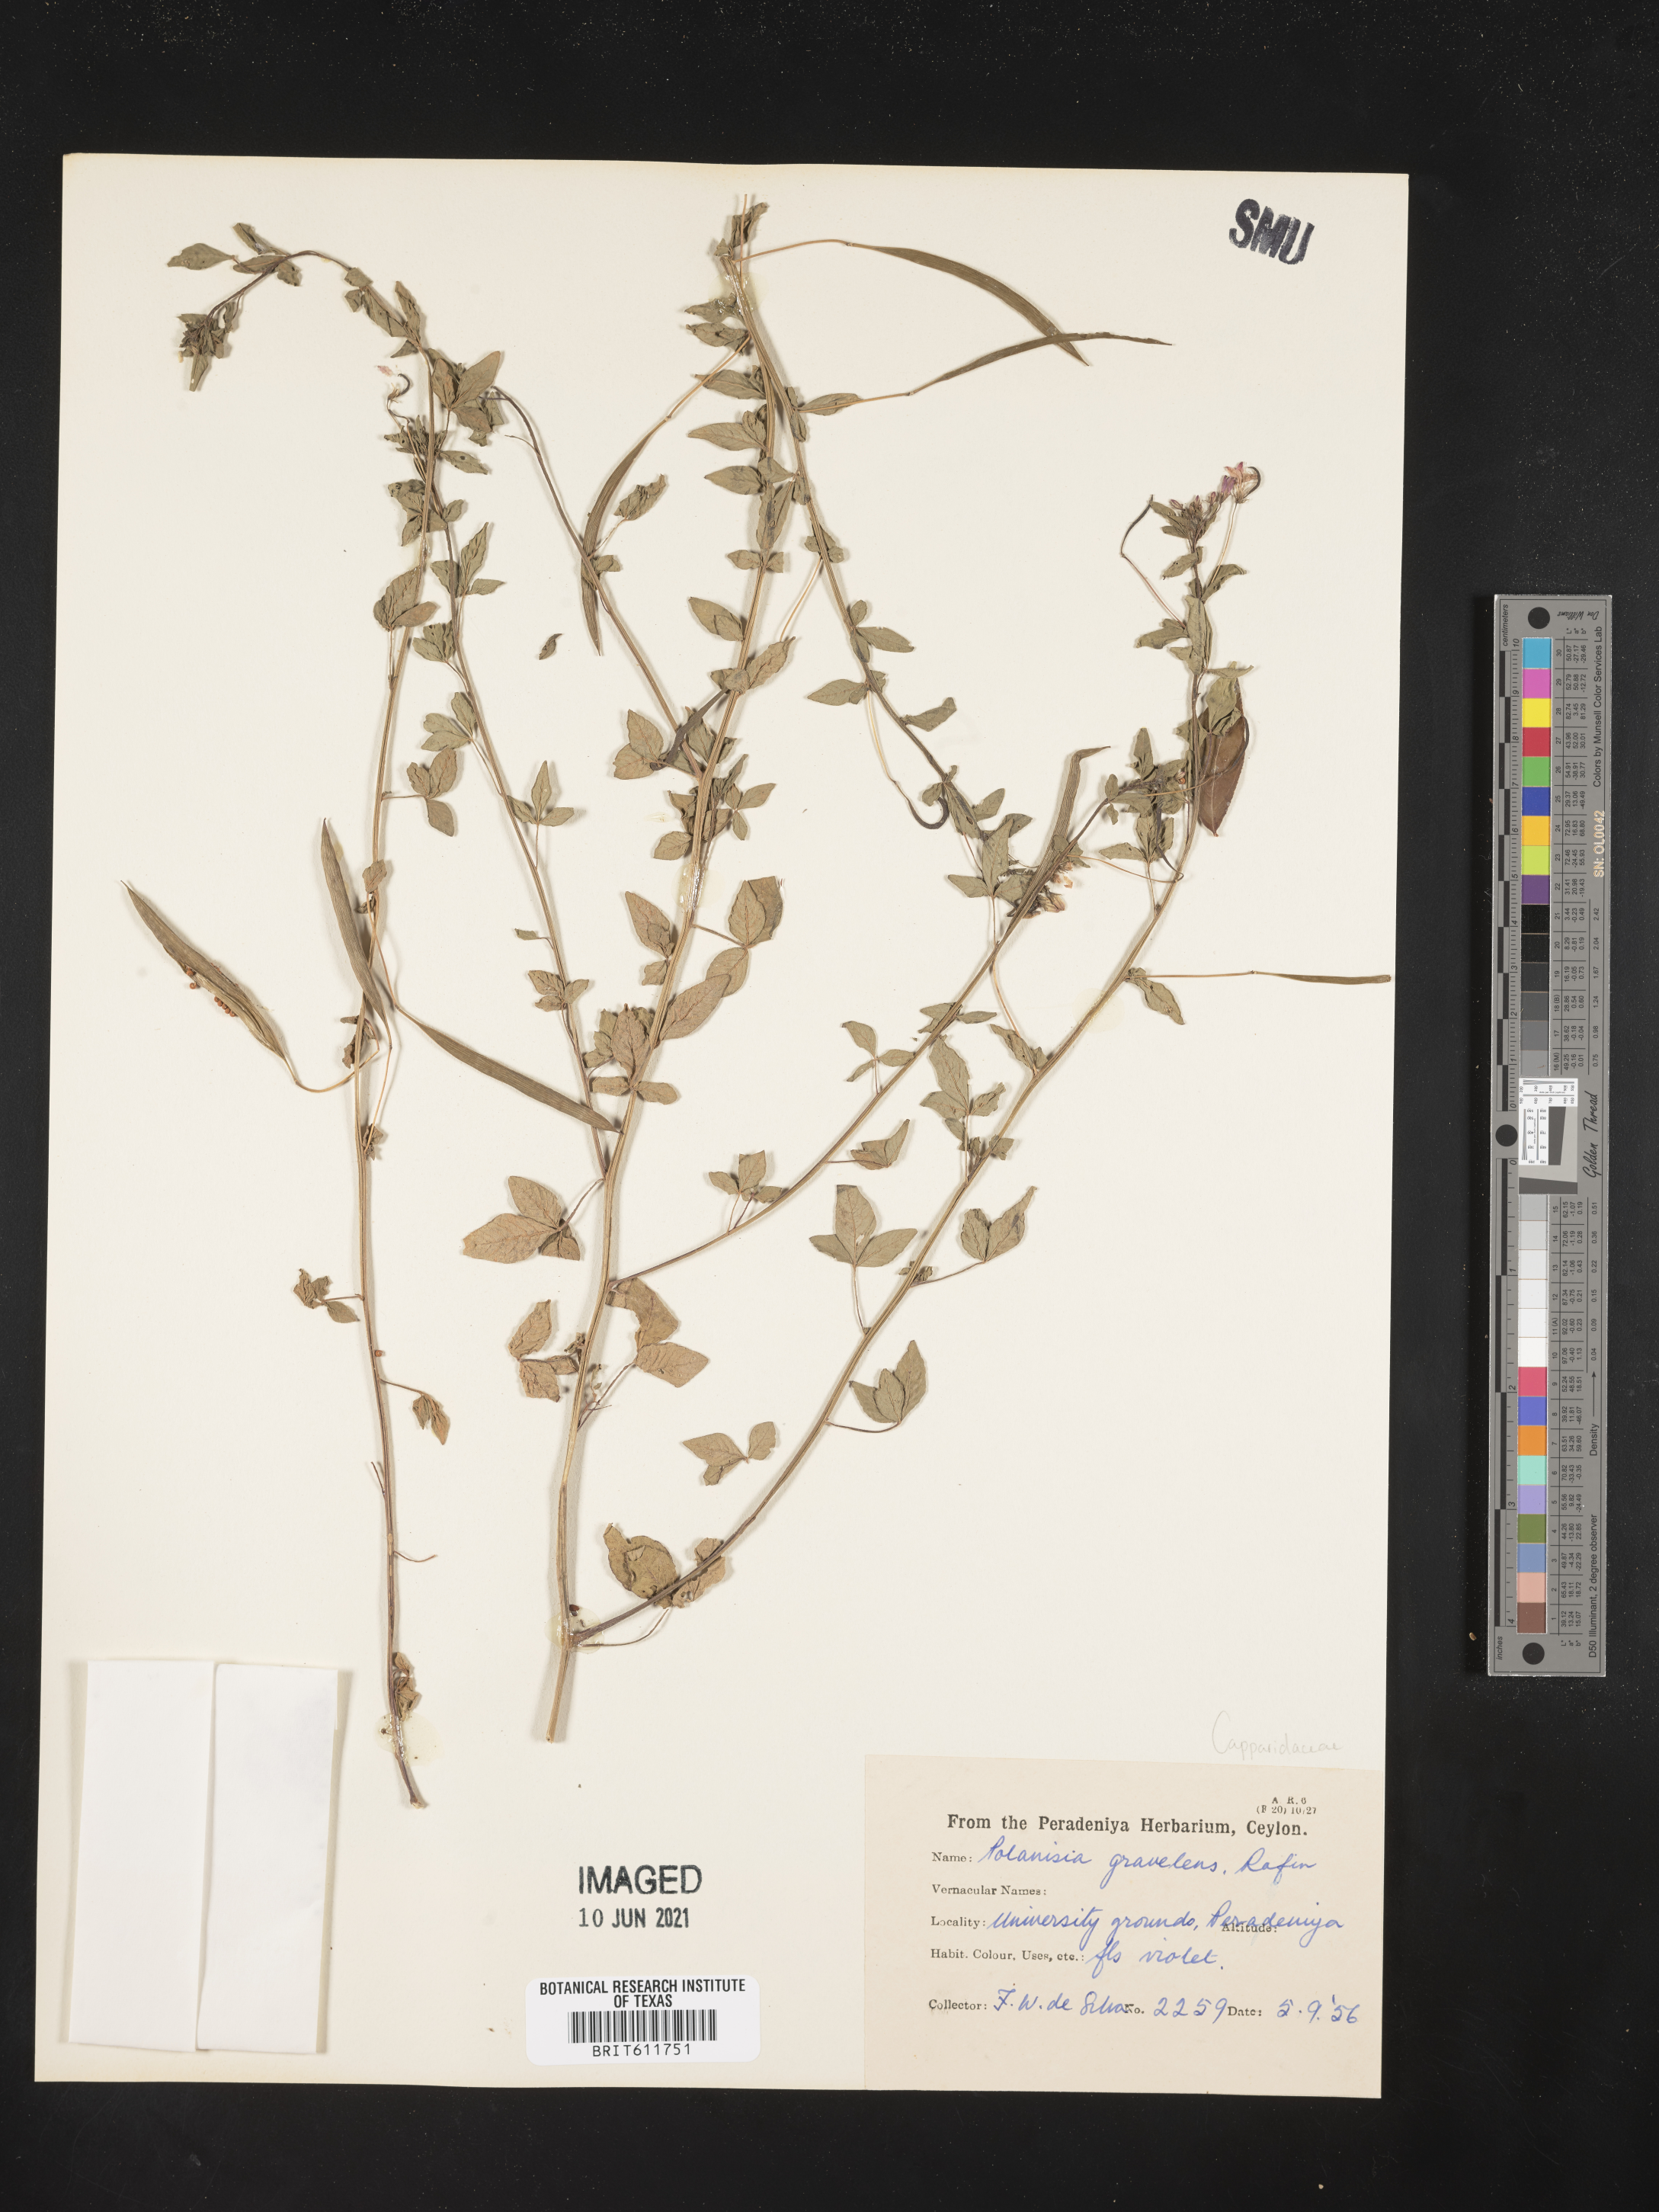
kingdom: Plantae
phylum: Tracheophyta
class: Magnoliopsida
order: Brassicales
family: Cleomaceae
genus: Polanisia
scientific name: Polanisia dodecandra
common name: Clammyweed
